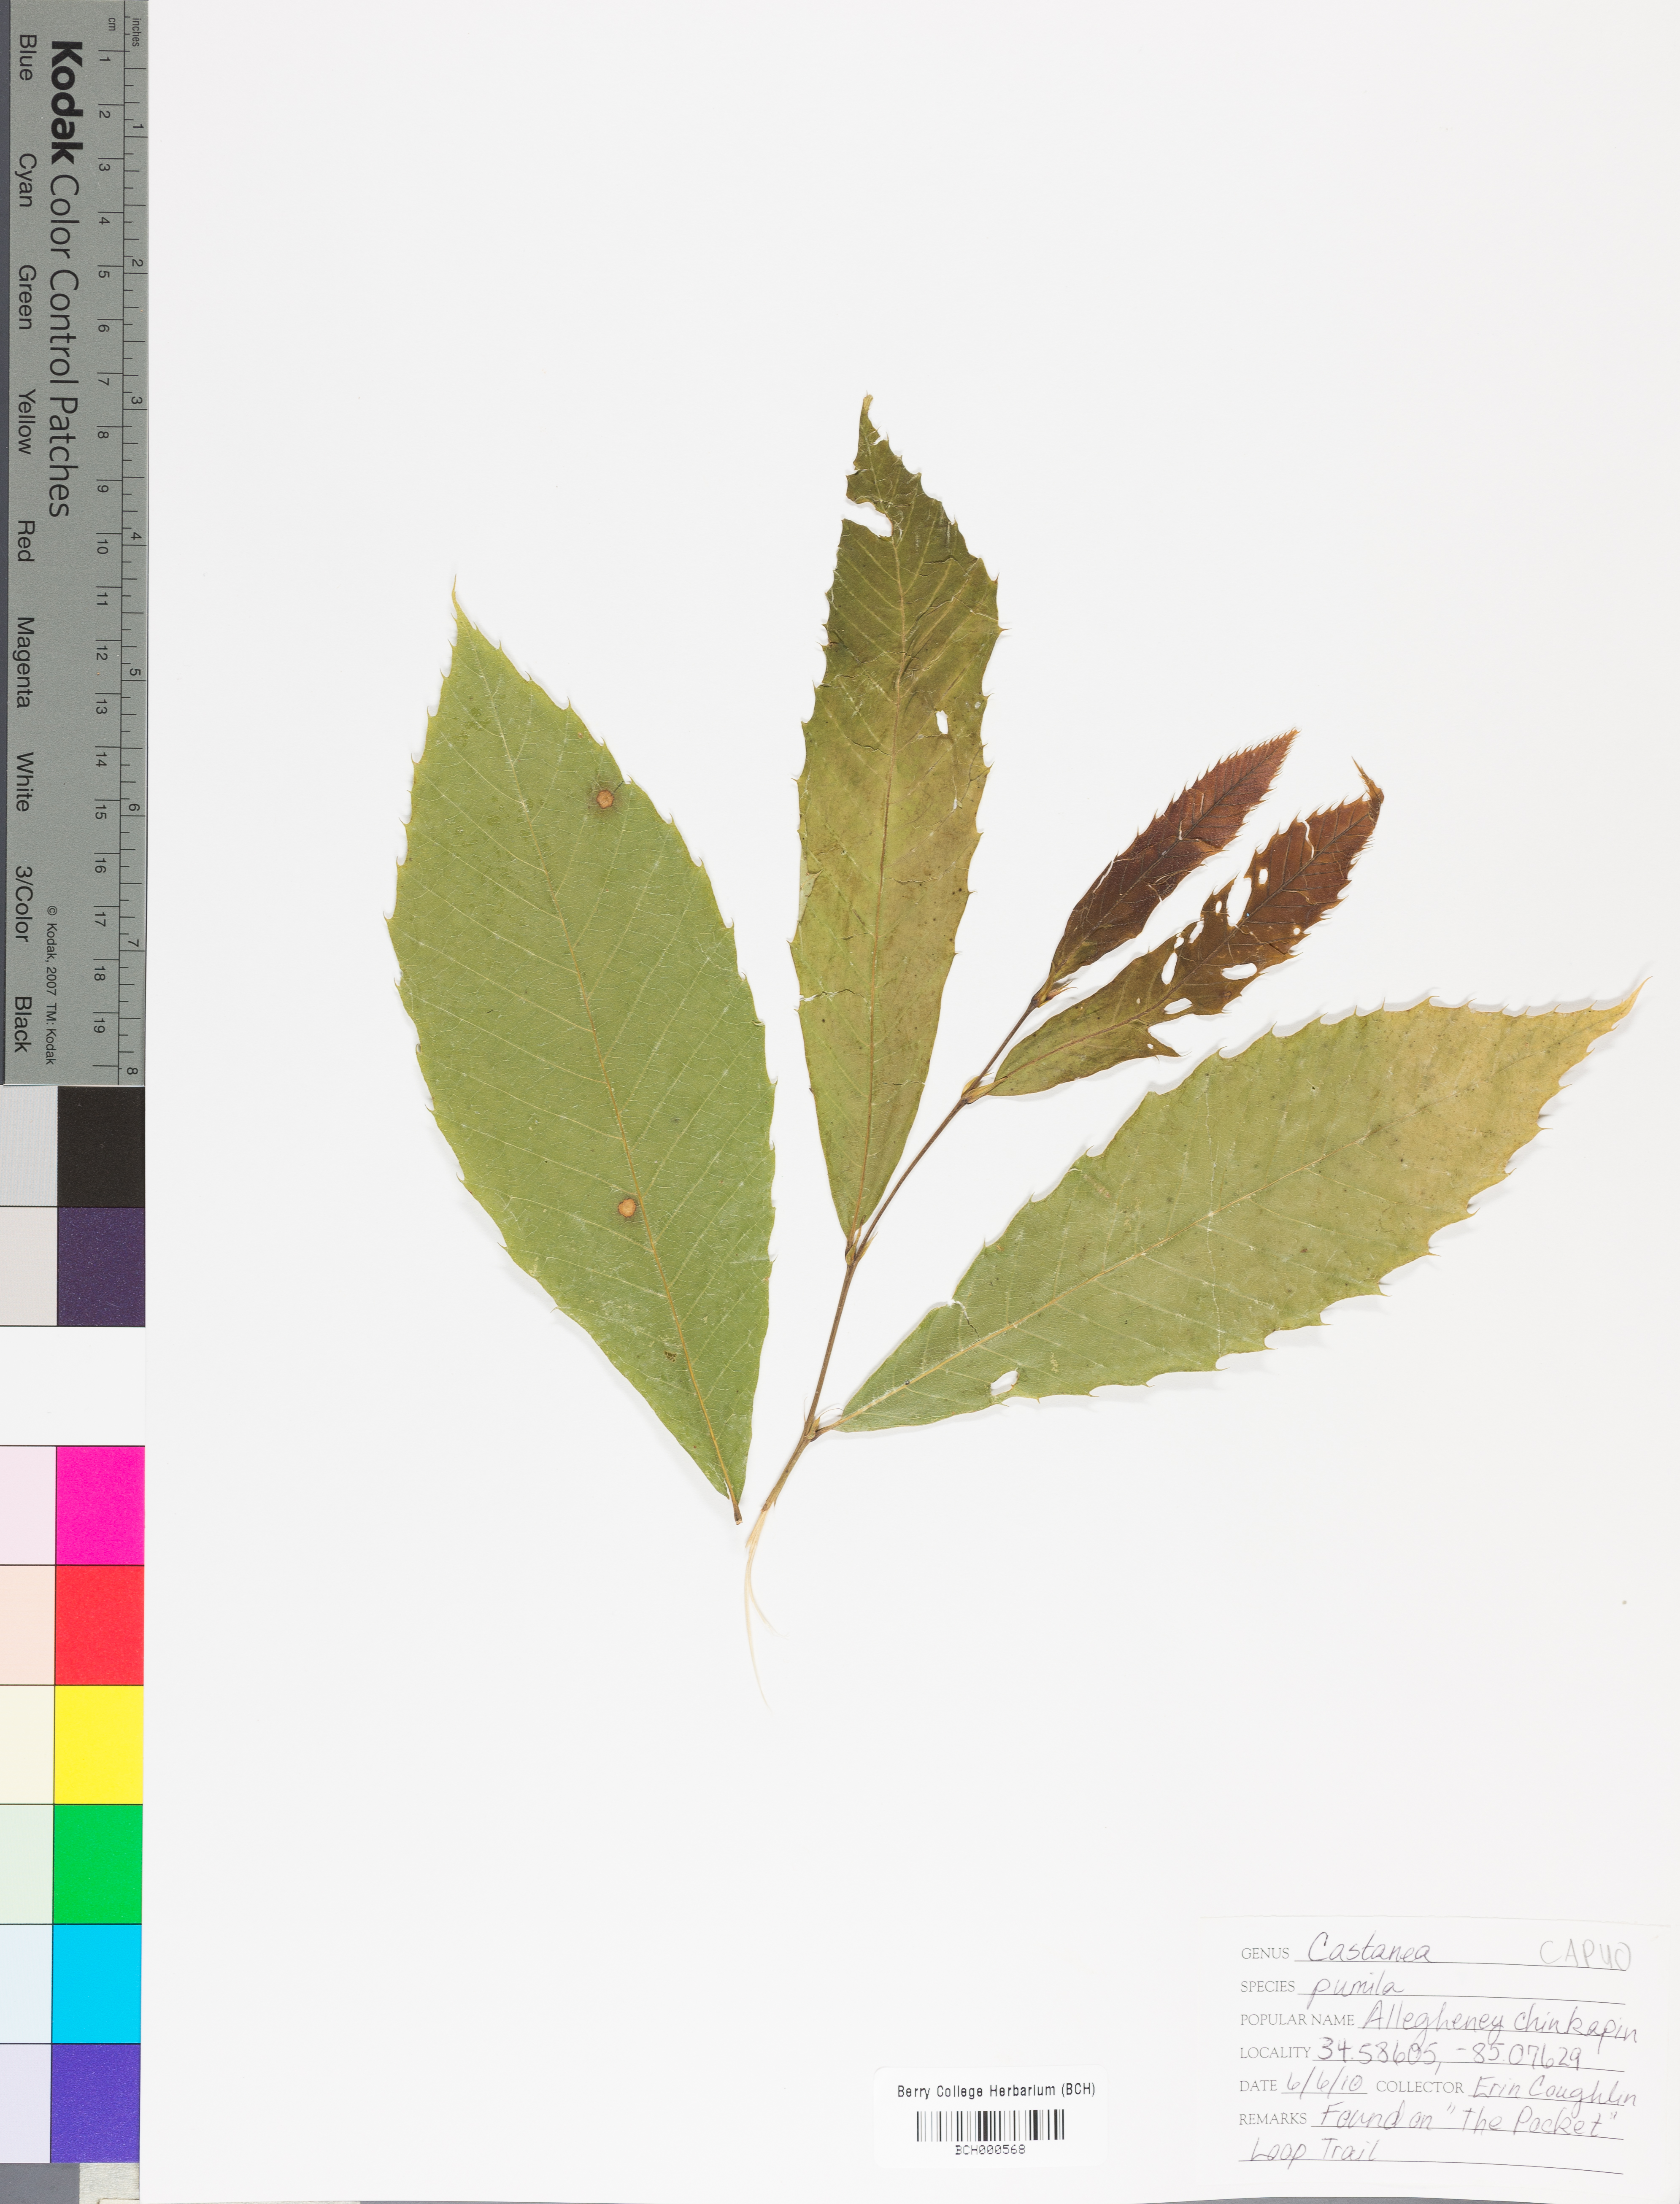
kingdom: Plantae
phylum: Tracheophyta
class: Magnoliopsida
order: Fagales
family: Fagaceae
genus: Castanea
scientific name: Castanea ozarkensis
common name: Ozark chinkapin
